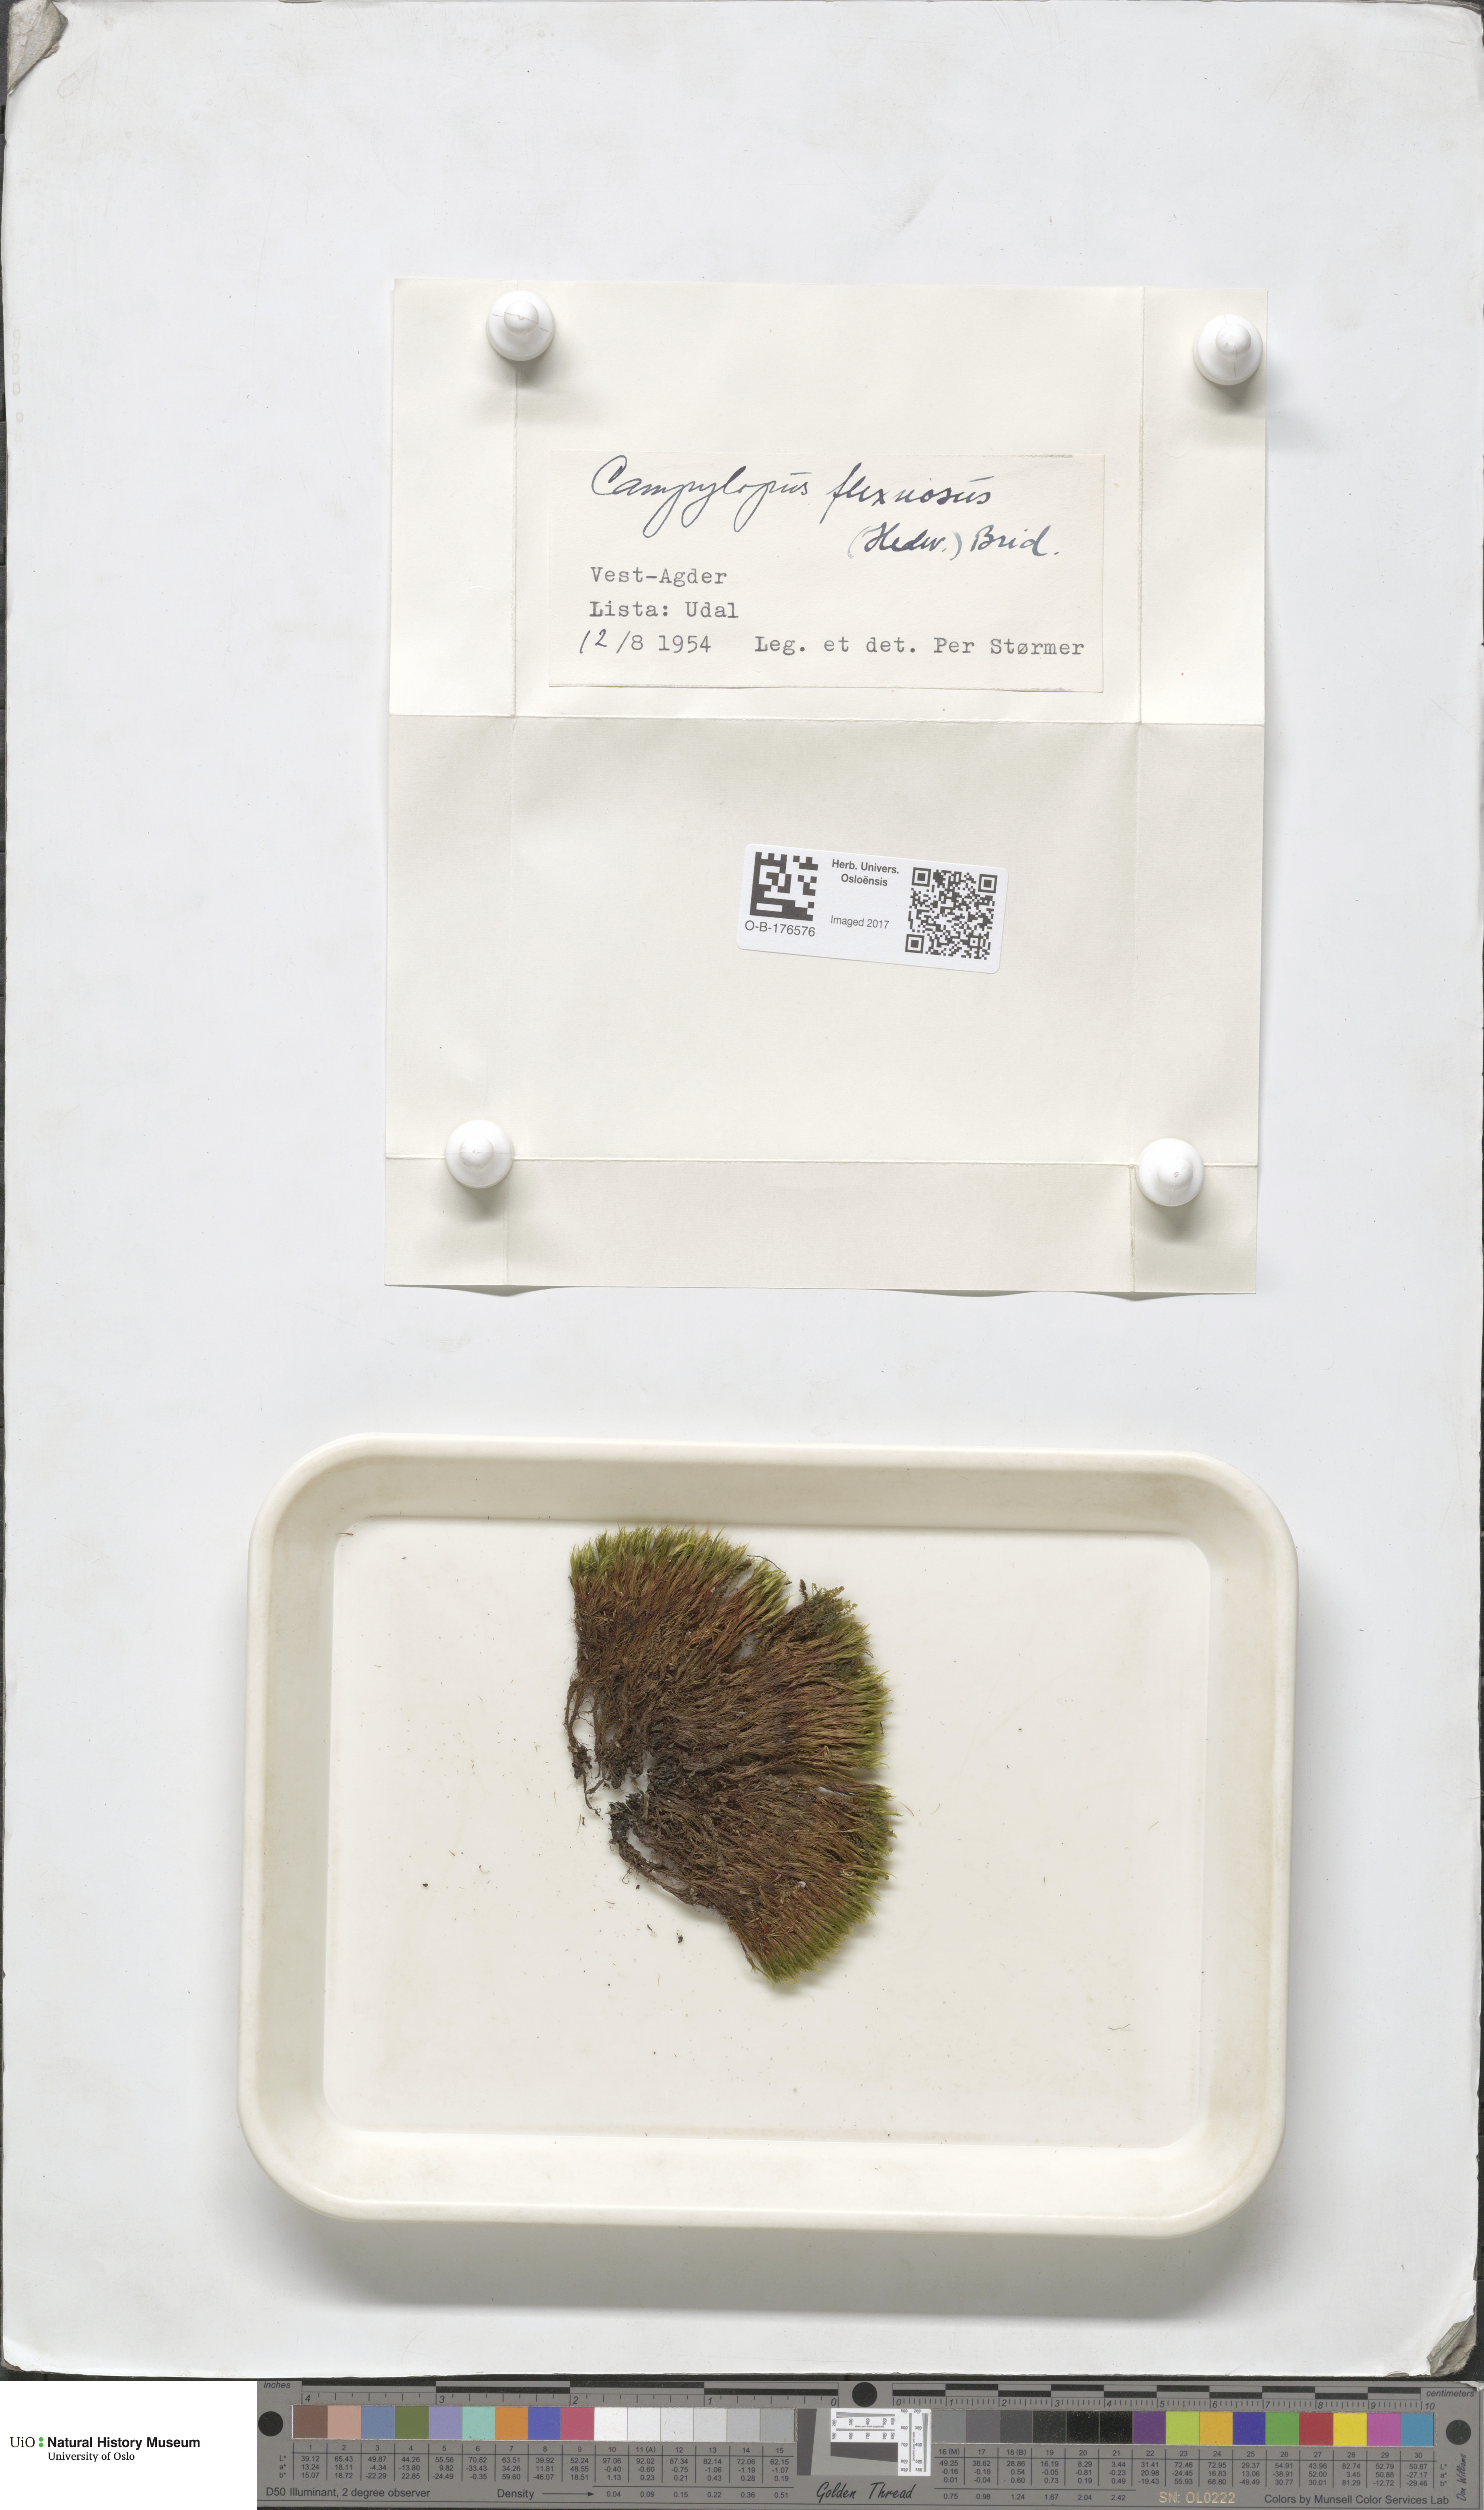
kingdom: Plantae
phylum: Bryophyta
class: Bryopsida
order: Dicranales
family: Leucobryaceae
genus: Campylopus
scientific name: Campylopus flexuosus
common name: Rusty swan-neck moss
